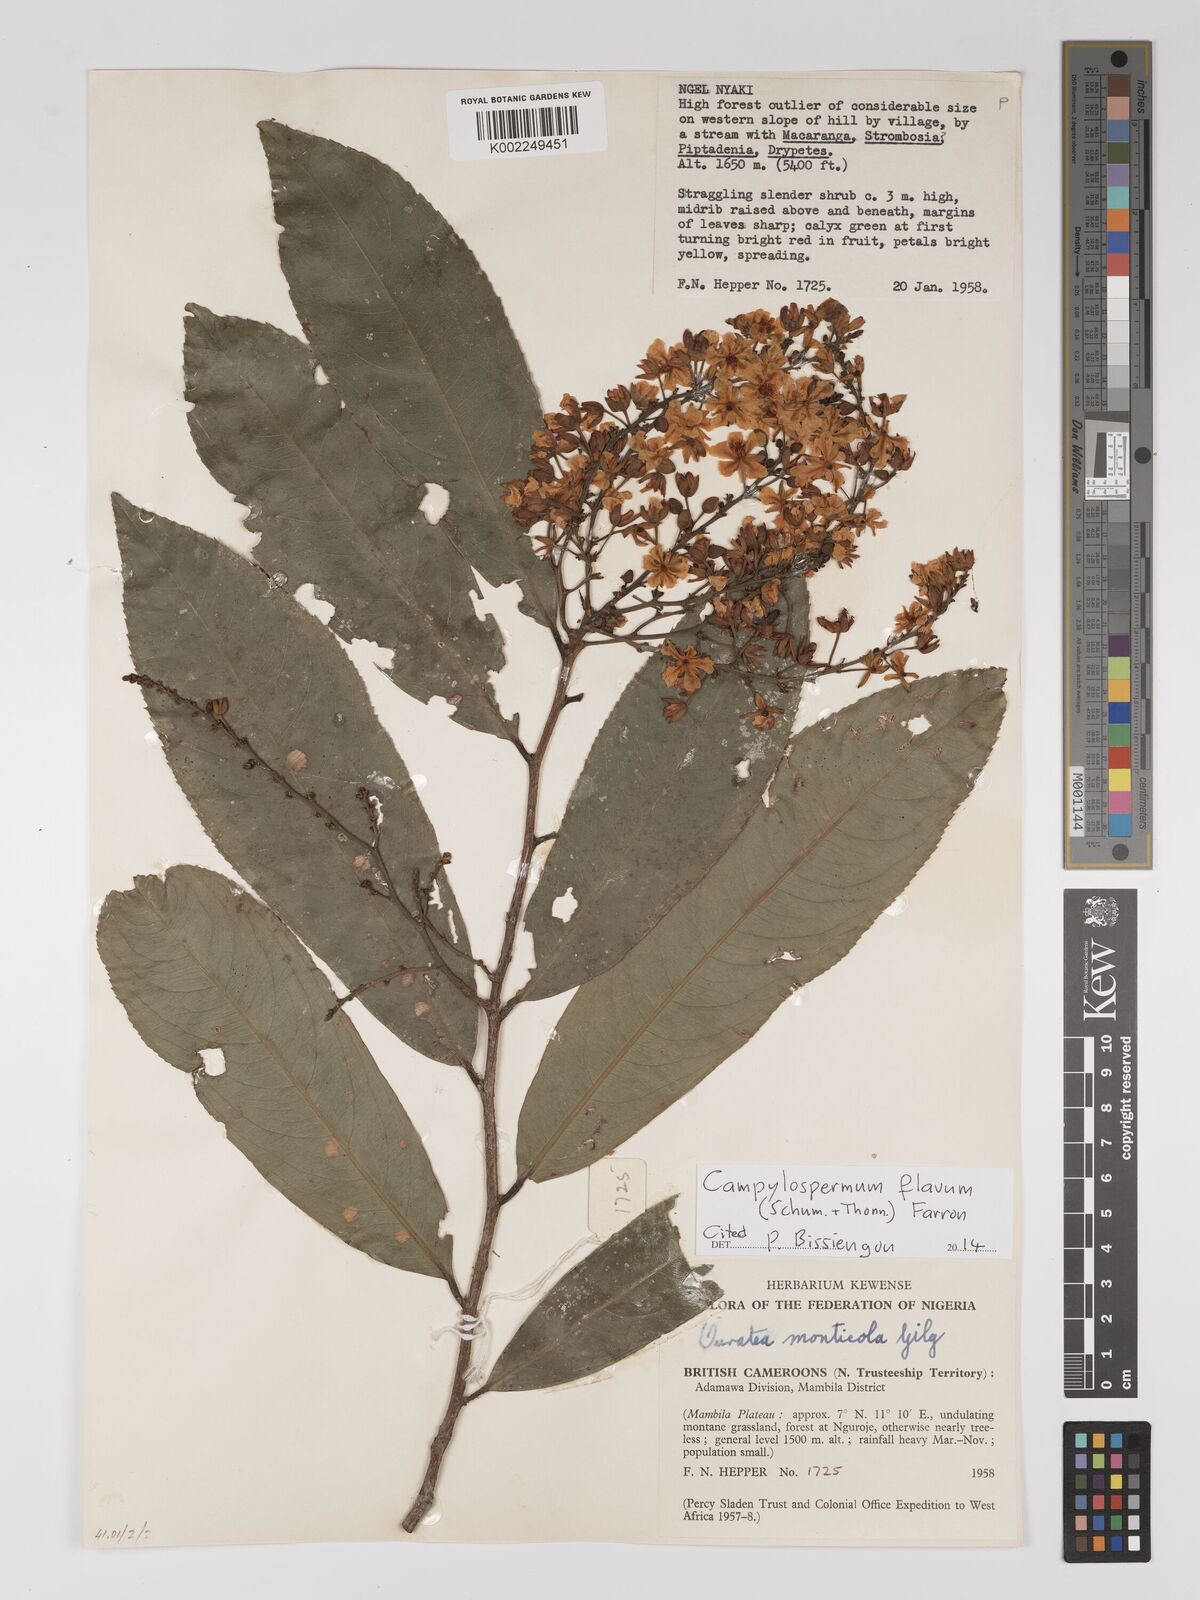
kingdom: Plantae
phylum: Tracheophyta
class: Magnoliopsida
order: Malpighiales
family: Ochnaceae
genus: Campylospermum
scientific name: Campylospermum flavum
